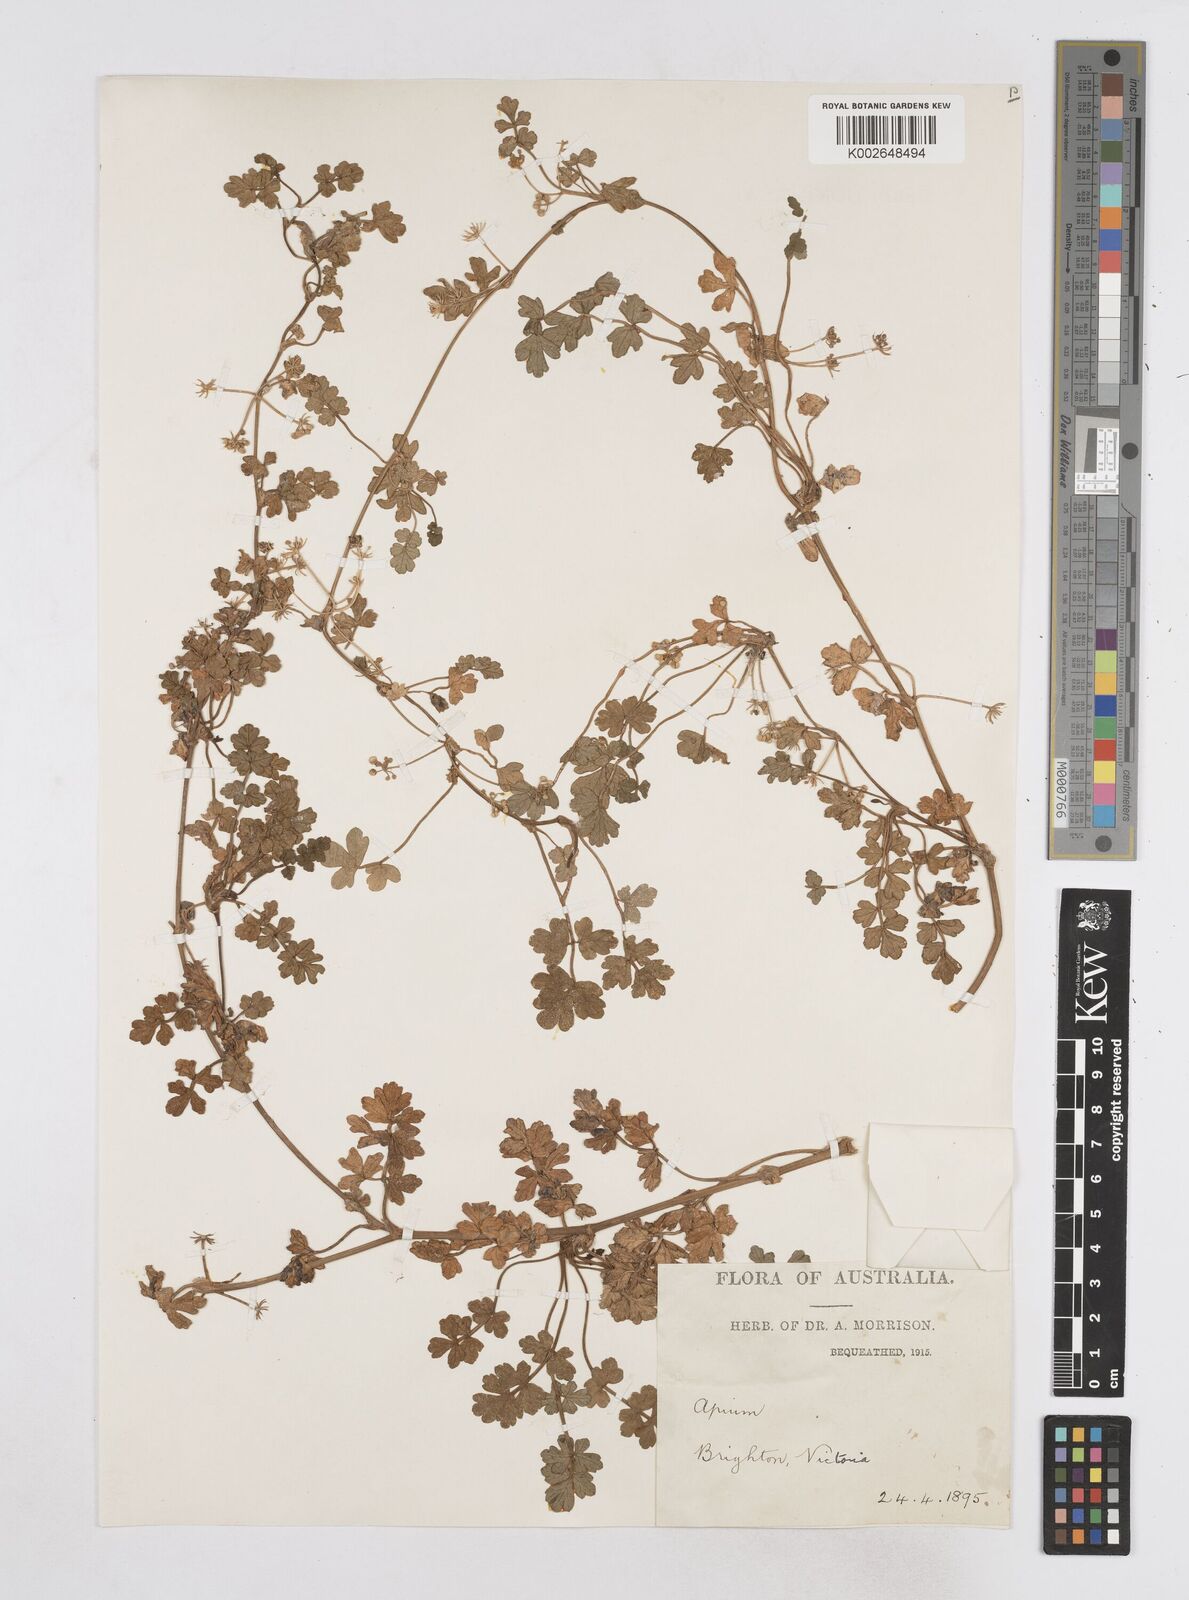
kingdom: Plantae
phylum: Tracheophyta
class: Magnoliopsida
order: Apiales
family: Apiaceae
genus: Apium
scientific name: Apium prostratum
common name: Prostrate marshwort
